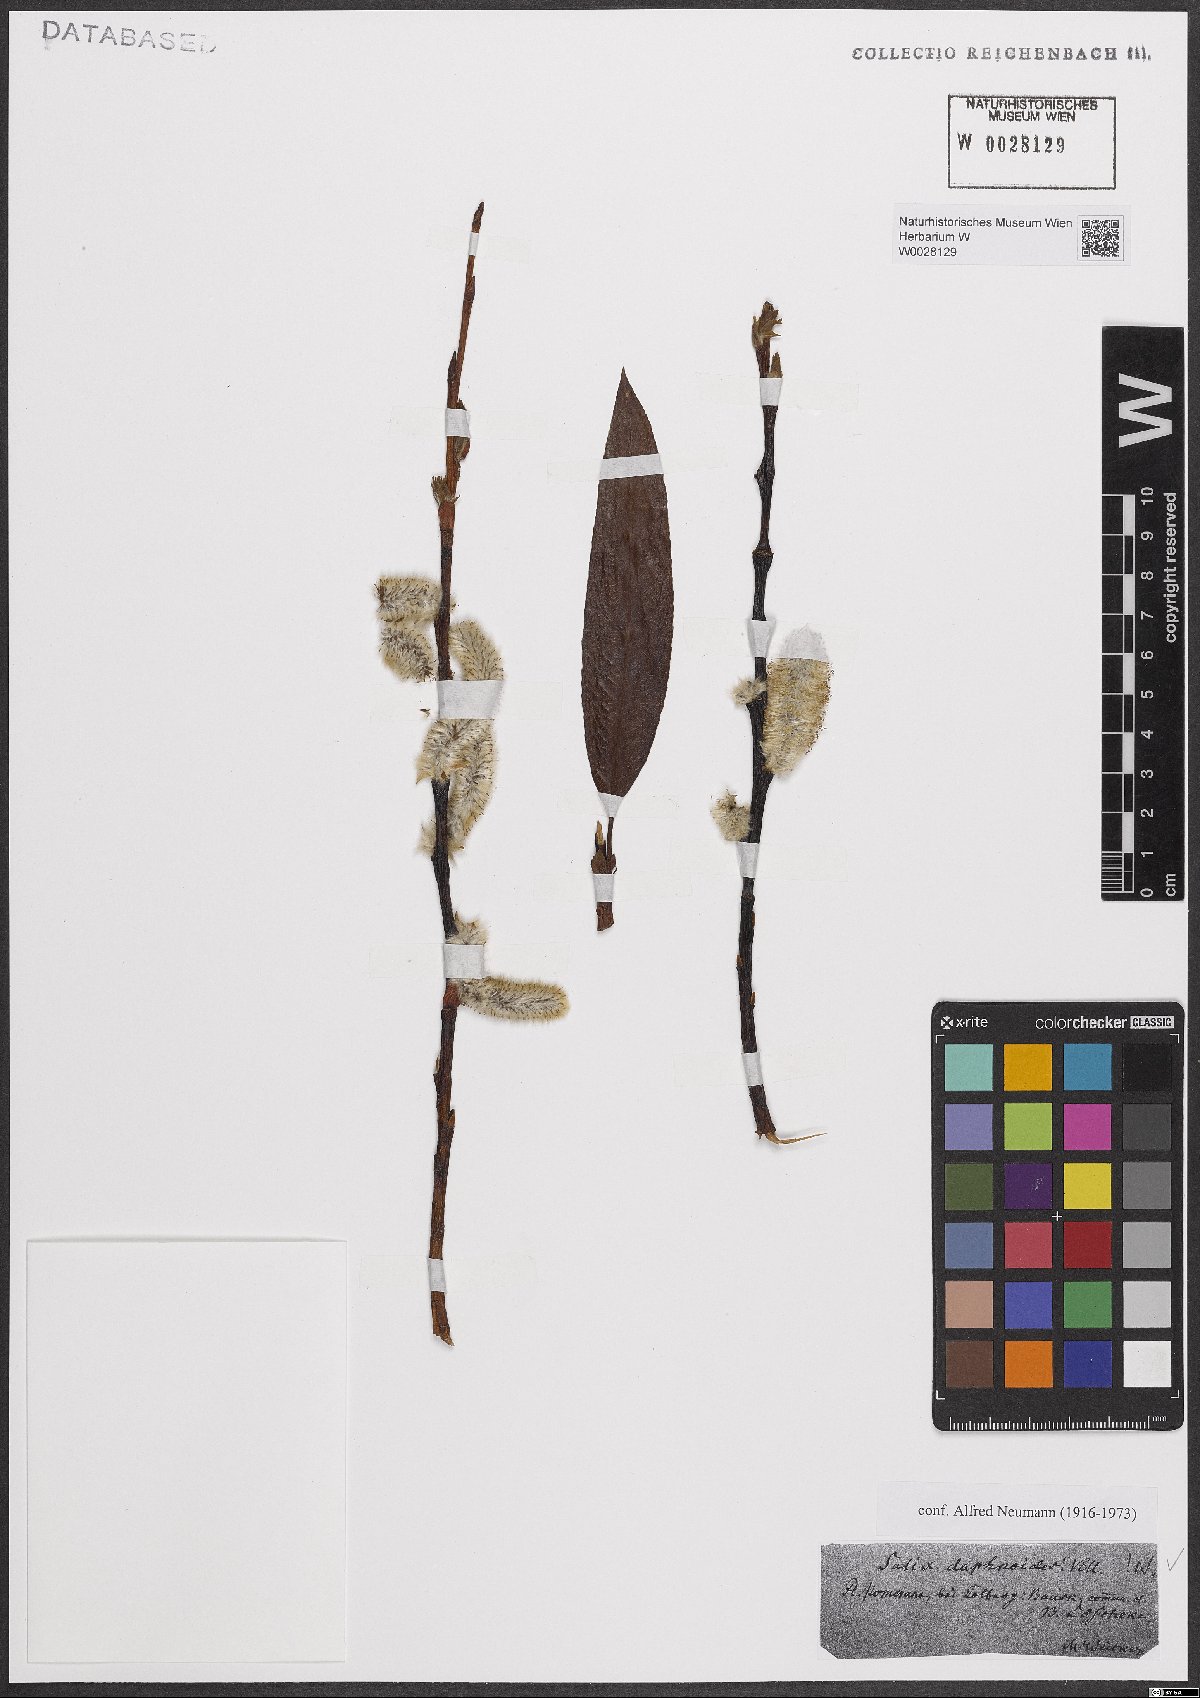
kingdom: Plantae
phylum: Tracheophyta
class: Magnoliopsida
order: Malpighiales
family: Salicaceae
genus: Salix
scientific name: Salix daphnoides
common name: European violet-willow
